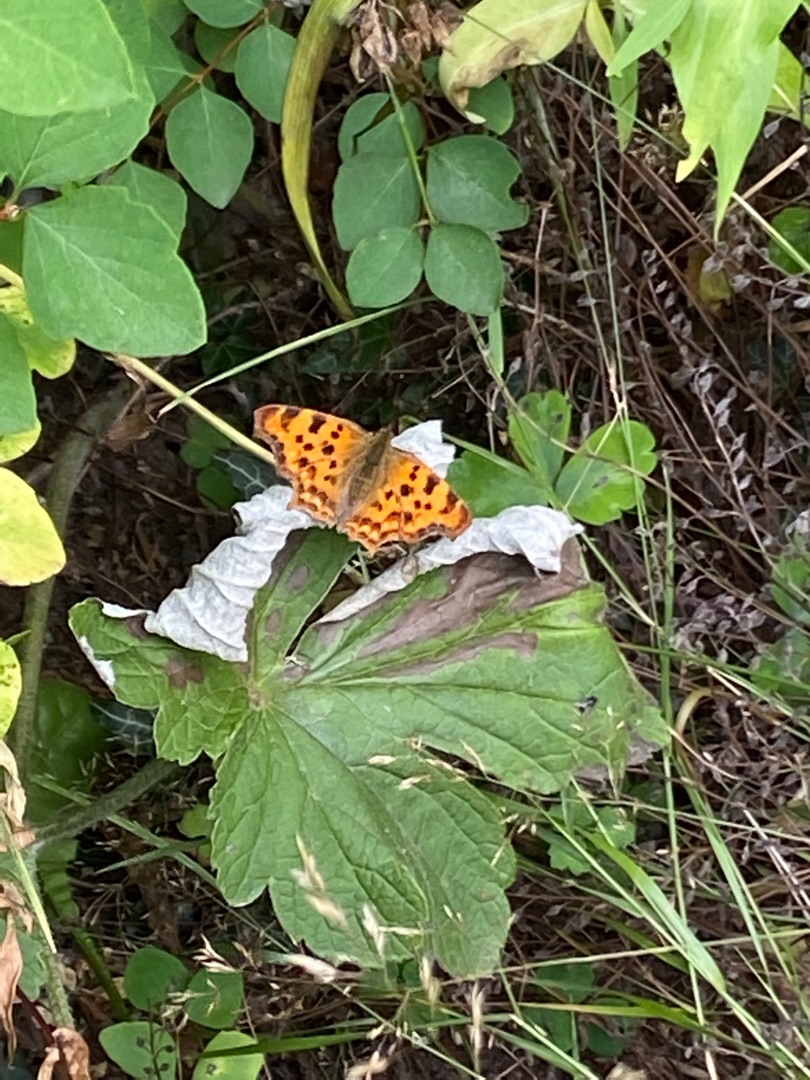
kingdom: Animalia
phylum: Arthropoda
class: Insecta
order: Lepidoptera
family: Nymphalidae
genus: Polygonia
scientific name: Polygonia c-album
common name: Det hvide C
